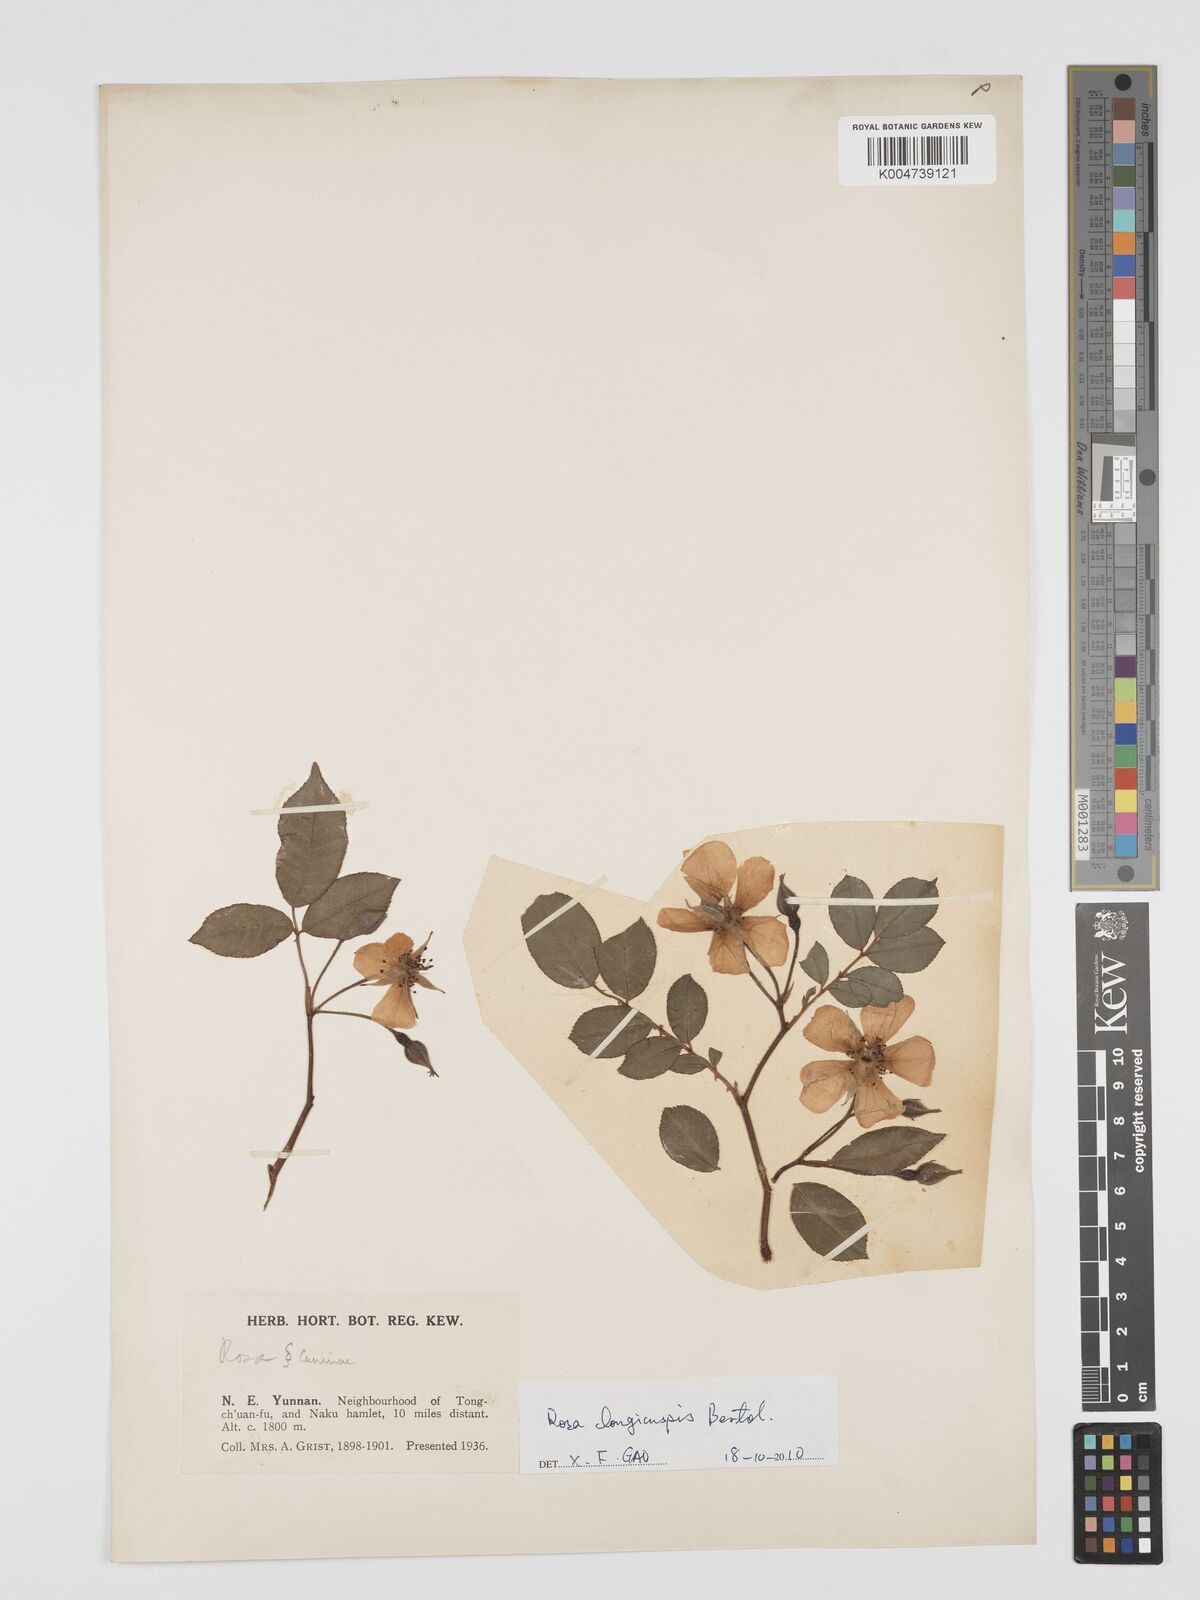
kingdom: Plantae
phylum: Tracheophyta
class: Magnoliopsida
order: Rosales
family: Rosaceae
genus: Rosa
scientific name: Rosa longicuspis
